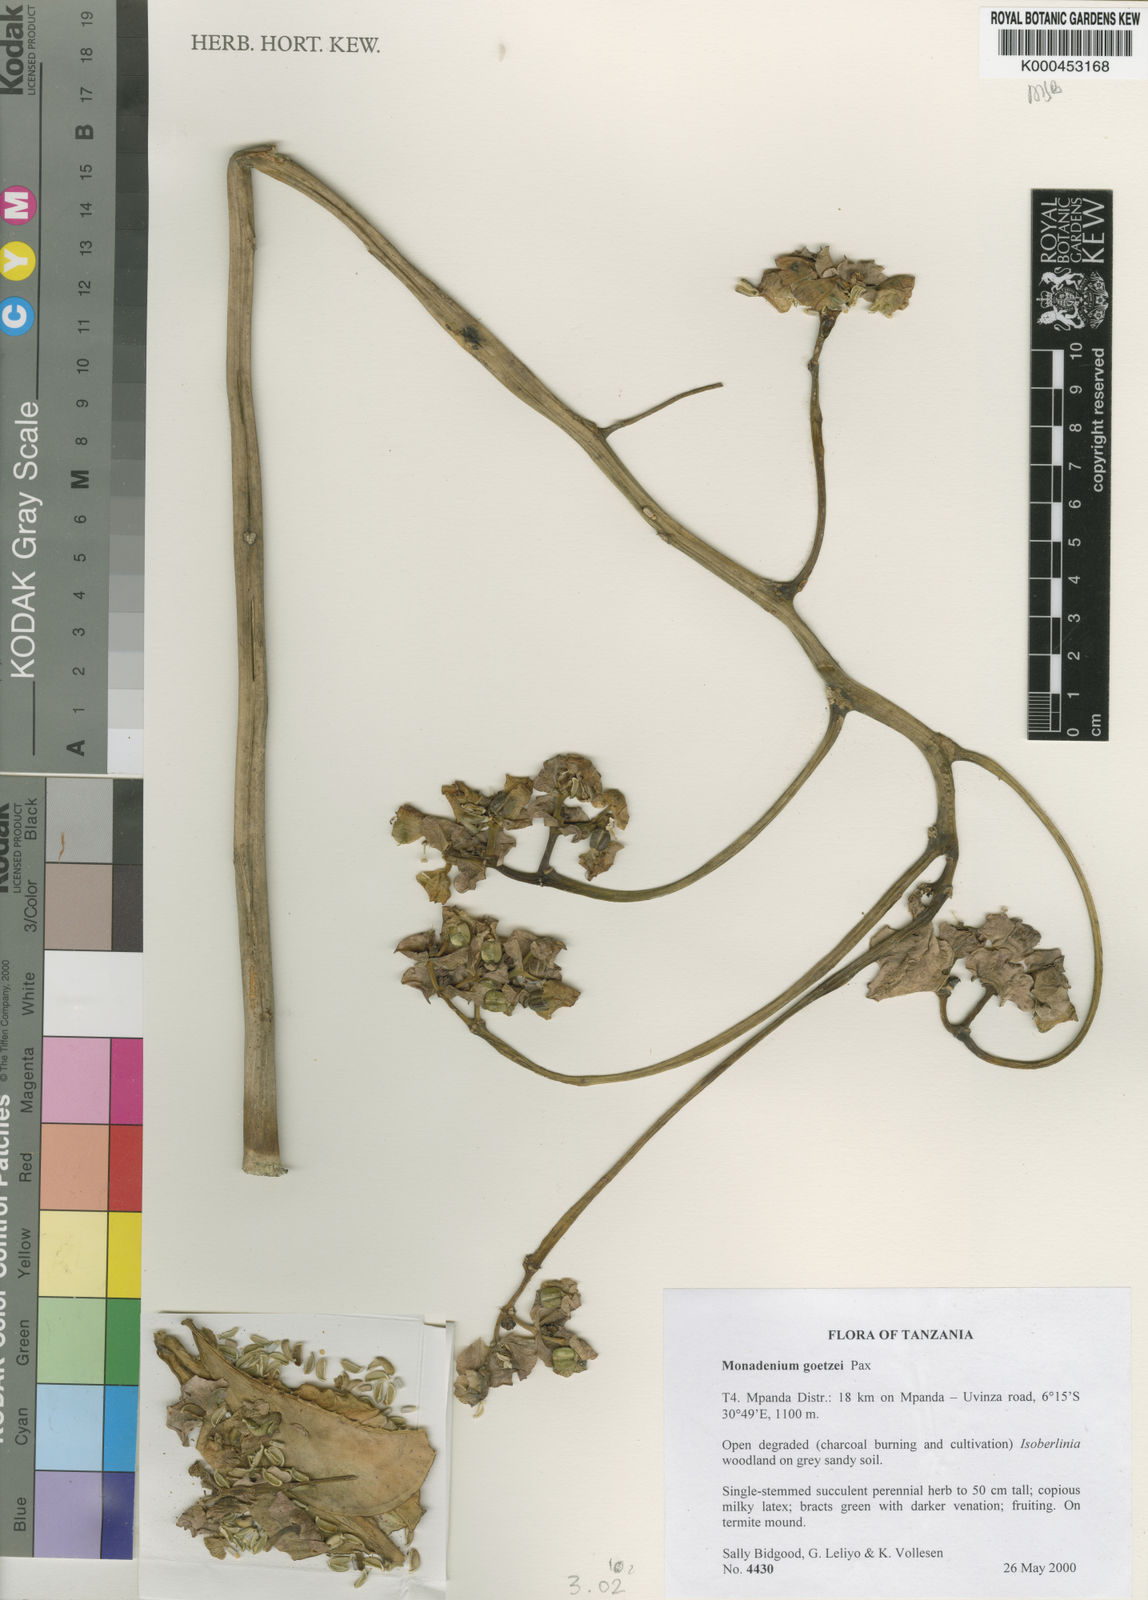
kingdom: Plantae
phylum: Tracheophyta
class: Magnoliopsida
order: Malpighiales
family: Euphorbiaceae
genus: Euphorbia
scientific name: Euphorbia neogoetzei
